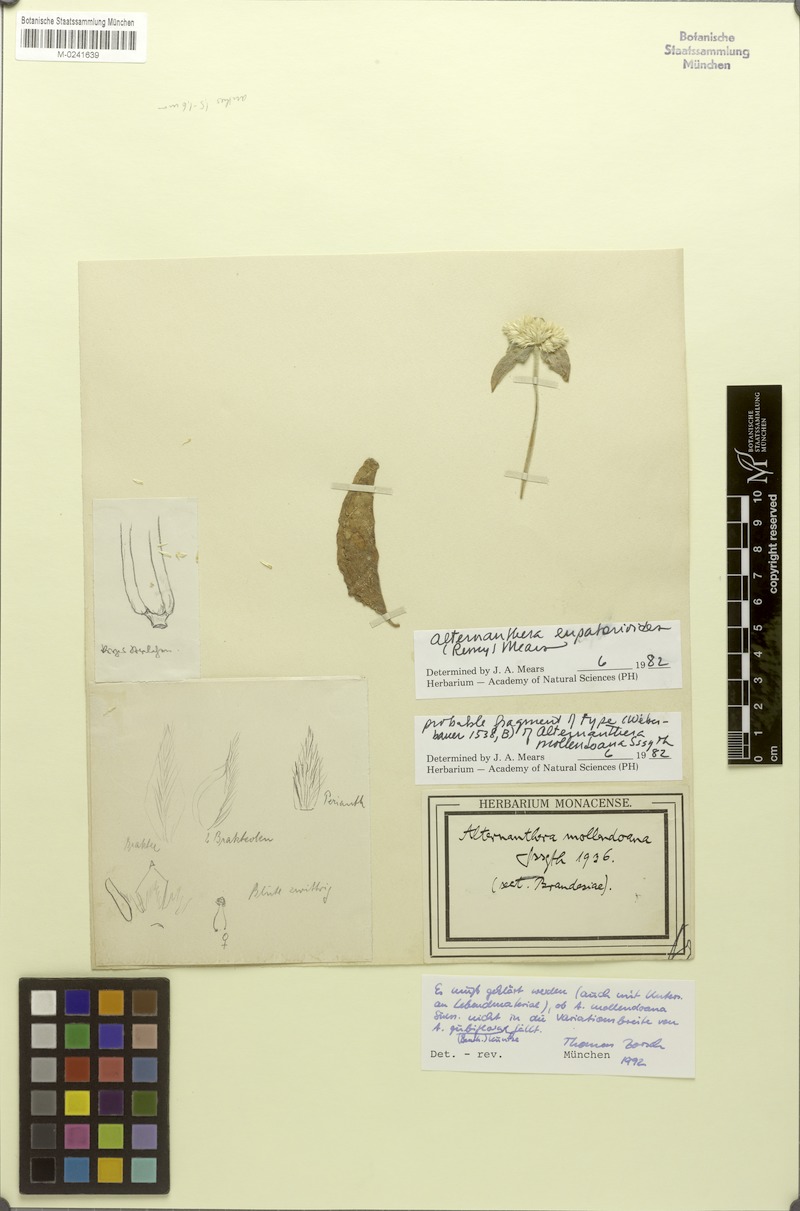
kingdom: Plantae
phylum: Tracheophyta
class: Magnoliopsida
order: Caryophyllales
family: Amaranthaceae
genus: Alternanthera
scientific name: Alternanthera pubiflora
